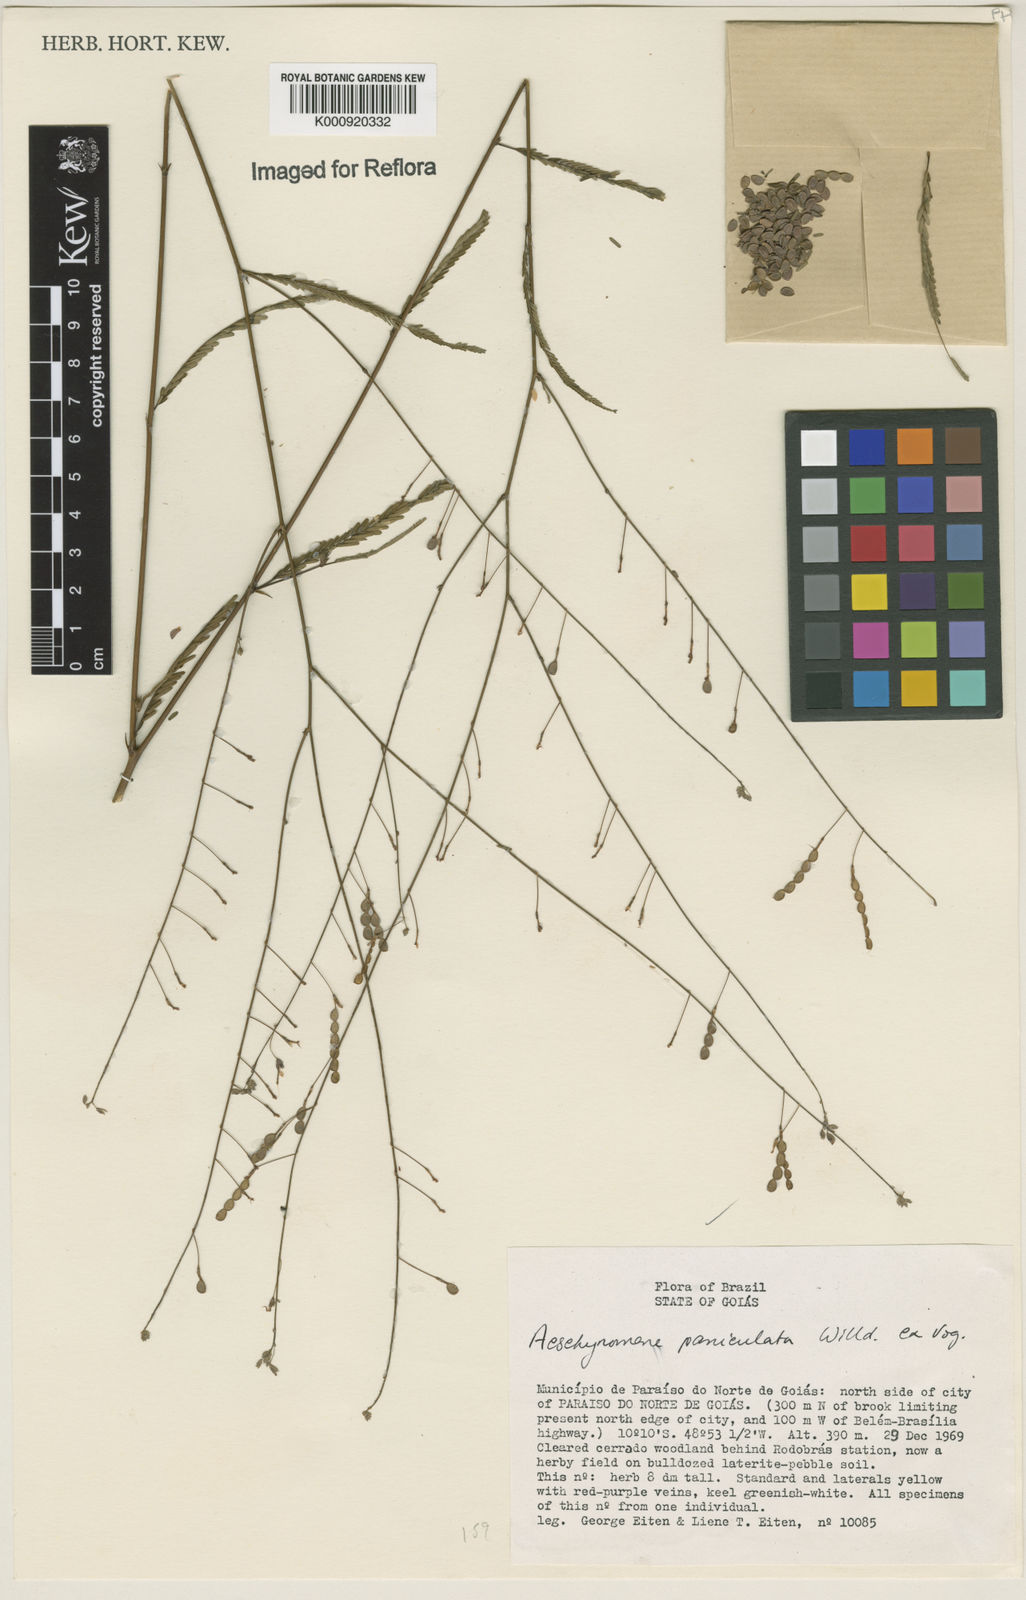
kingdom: Plantae
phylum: Tracheophyta
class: Magnoliopsida
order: Fabales
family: Fabaceae
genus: Ctenodon
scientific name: Ctenodon paniculatus
